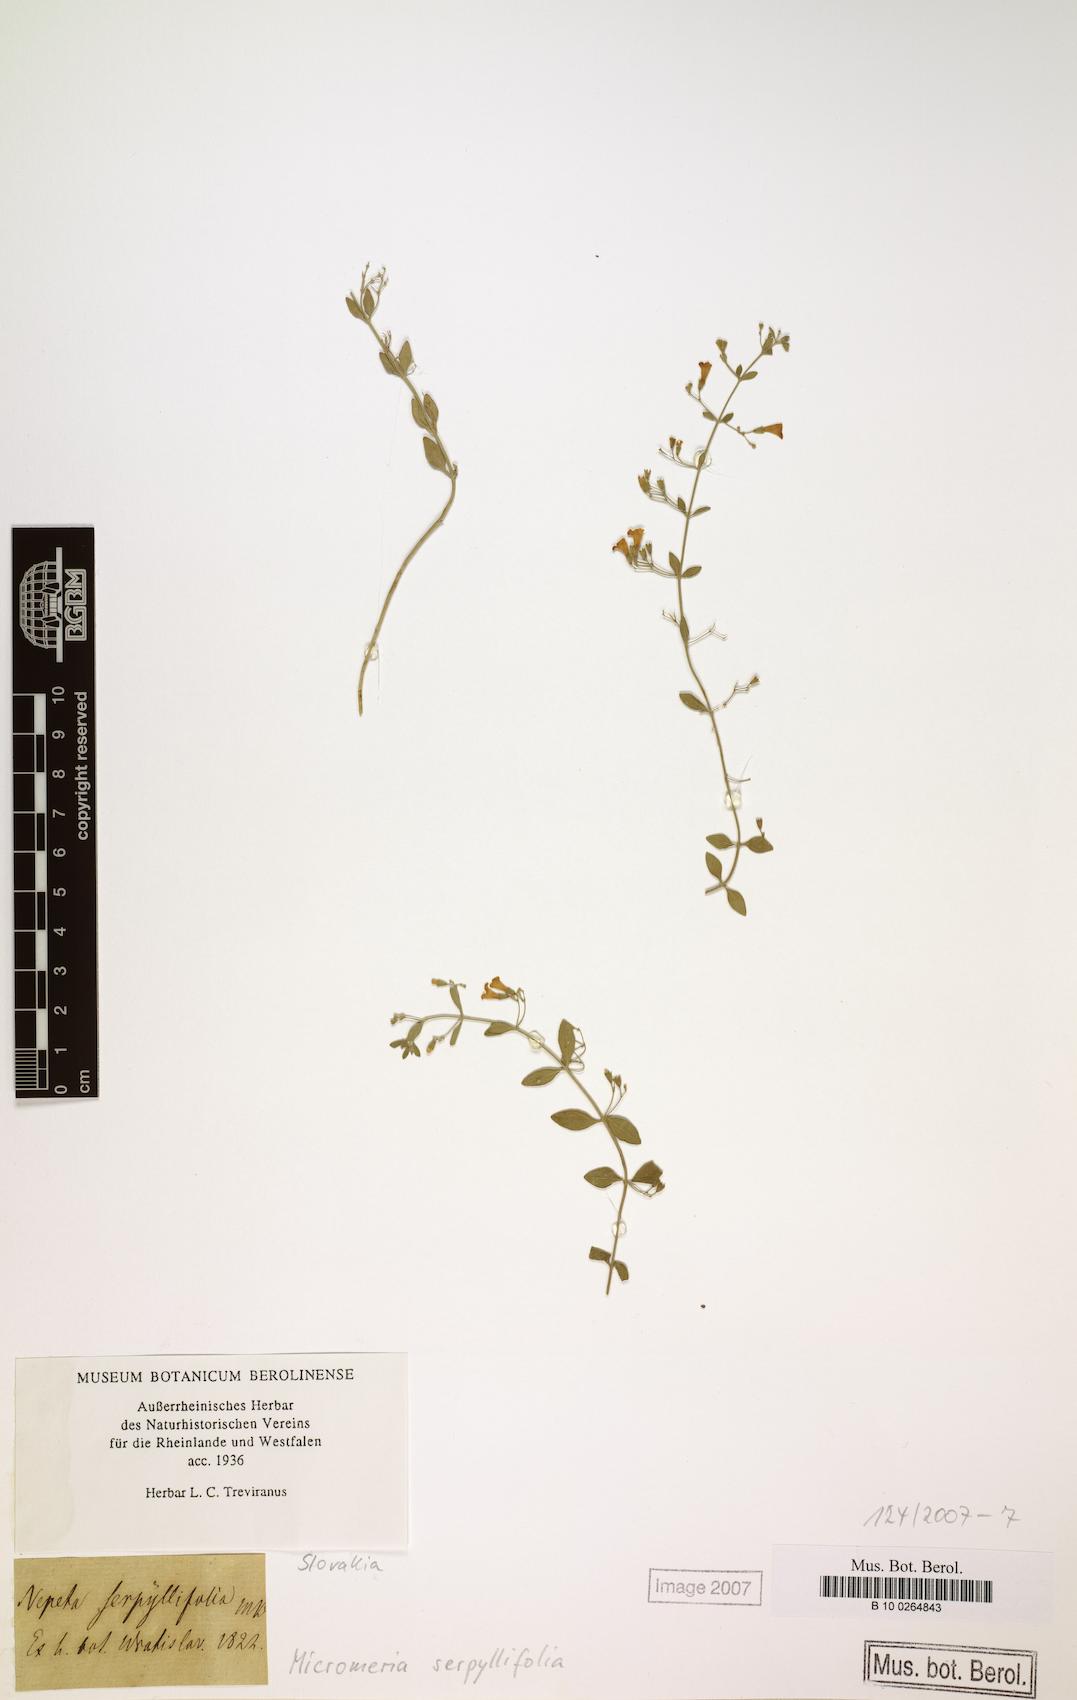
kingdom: Plantae
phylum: Tracheophyta
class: Magnoliopsida
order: Lamiales
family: Lamiaceae
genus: Clinopodium
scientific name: Clinopodium serpyllifolium
